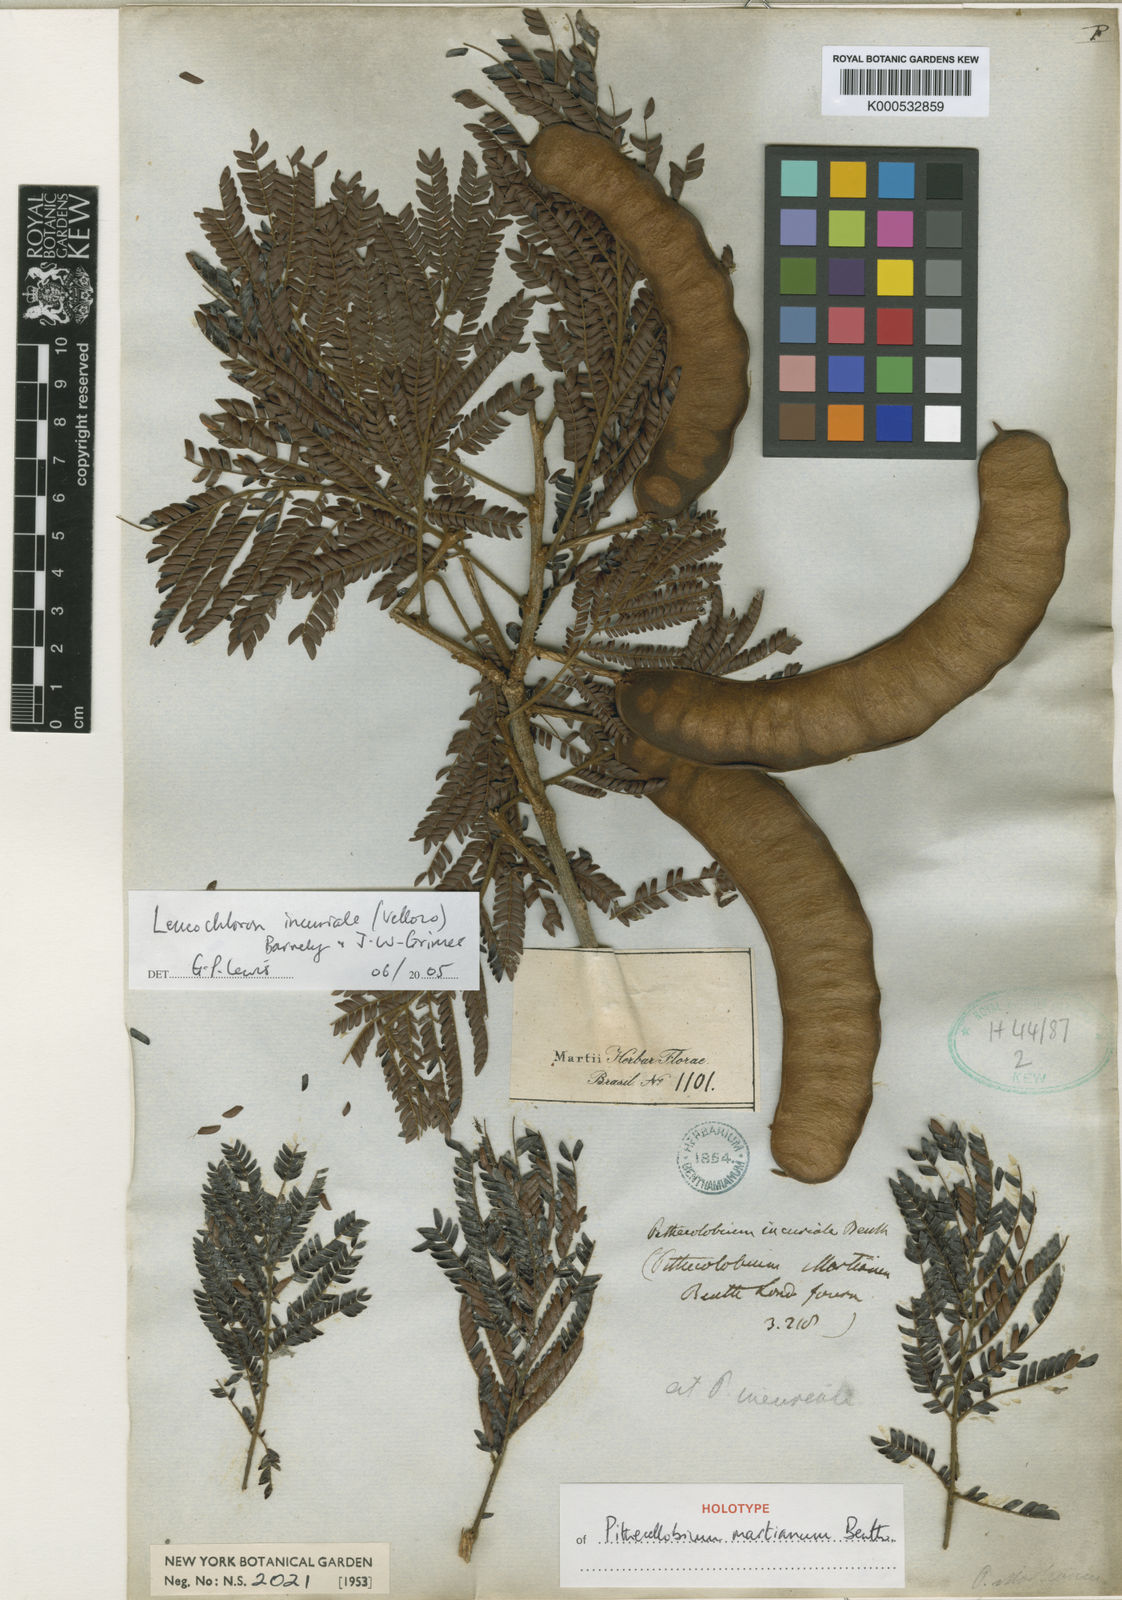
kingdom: Plantae
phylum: Tracheophyta
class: Magnoliopsida
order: Fabales
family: Fabaceae
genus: Leucochloron
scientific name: Leucochloron incuriale
